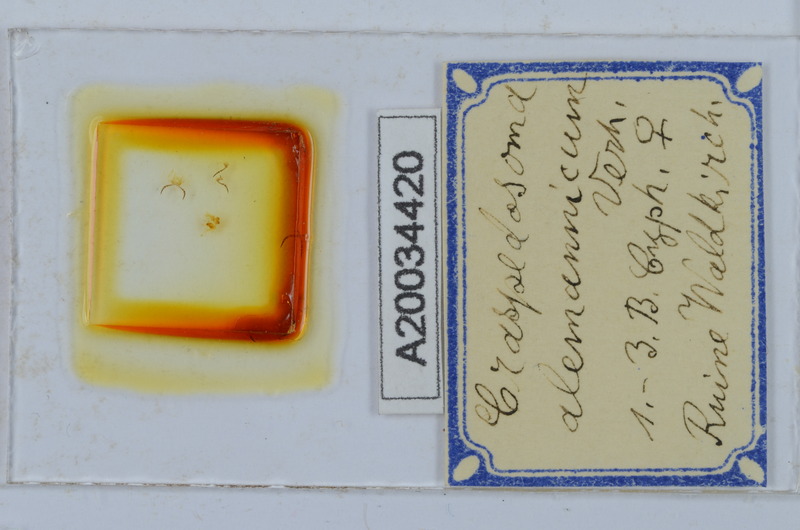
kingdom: Animalia
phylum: Arthropoda
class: Diplopoda
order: Chordeumatida
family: Craspedosomatidae
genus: Craspedosoma
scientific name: Craspedosoma alemannicum
